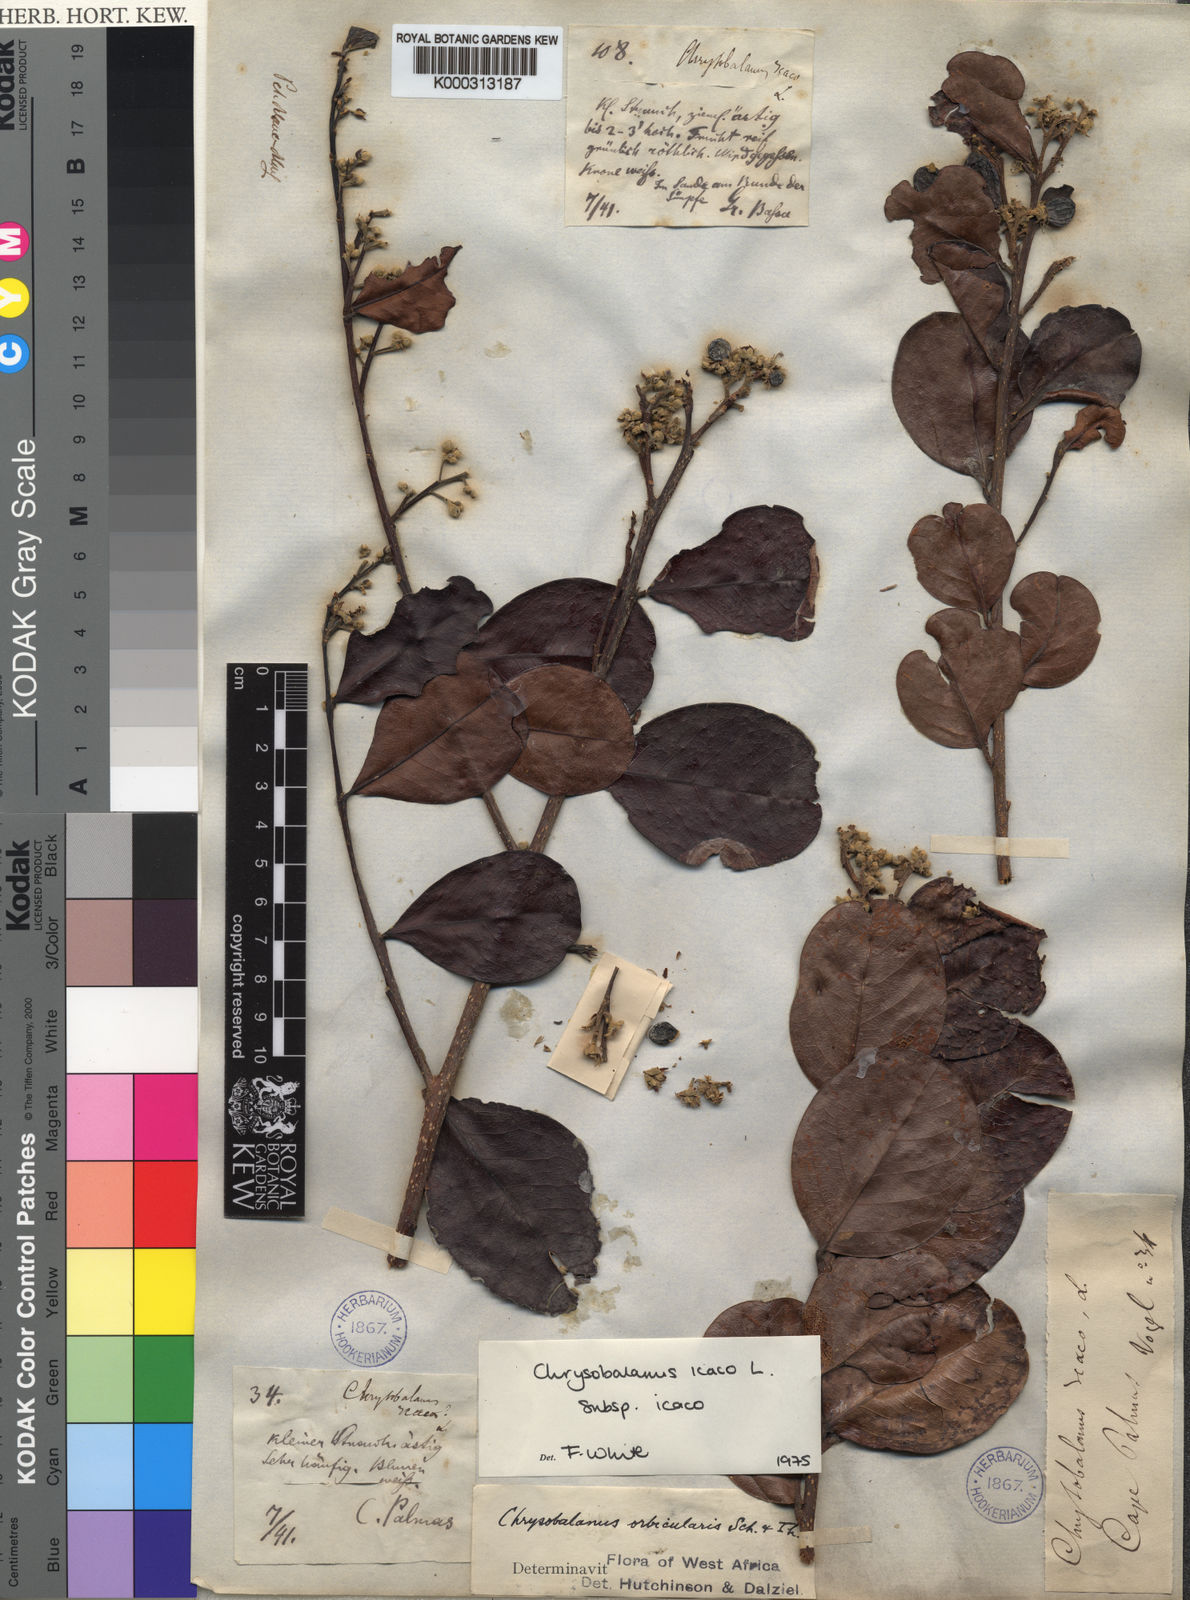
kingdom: Plantae
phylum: Tracheophyta
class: Magnoliopsida
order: Malpighiales
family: Chrysobalanaceae
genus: Chrysobalanus
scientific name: Chrysobalanus icaco
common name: Coco plum
